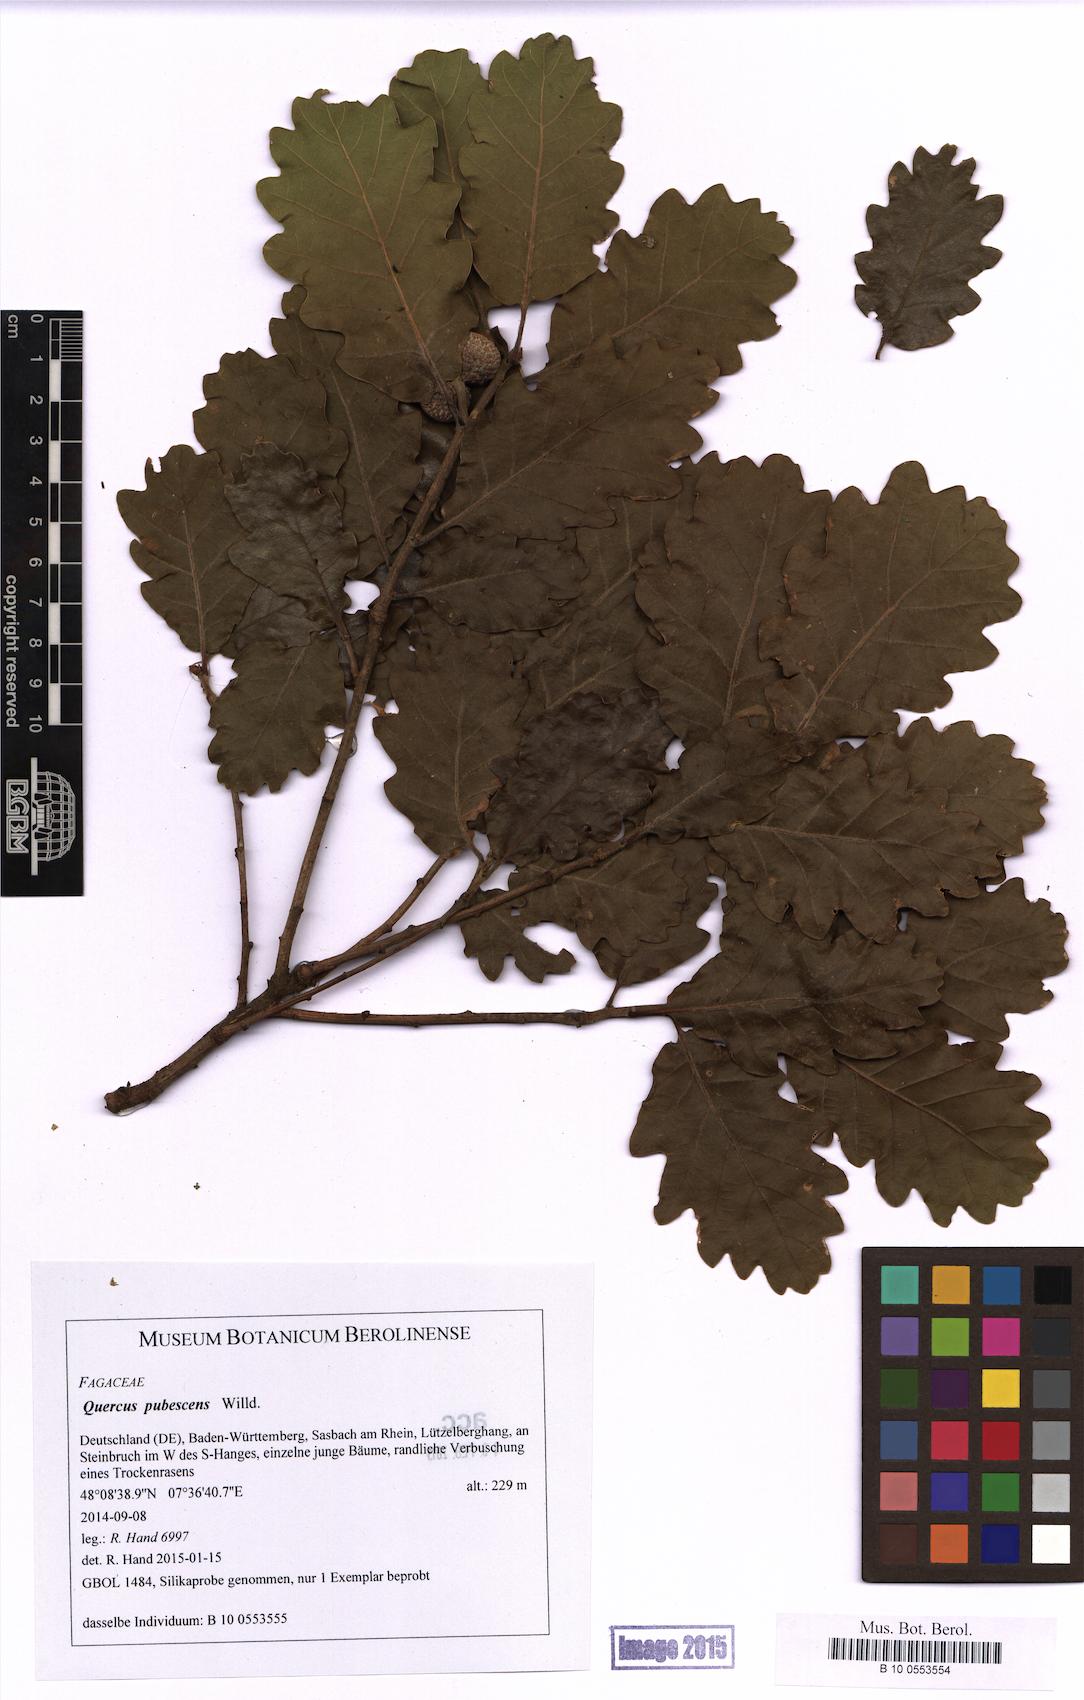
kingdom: Plantae
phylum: Tracheophyta
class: Magnoliopsida
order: Fagales
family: Fagaceae
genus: Quercus
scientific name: Quercus pubescens
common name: Downy oak
